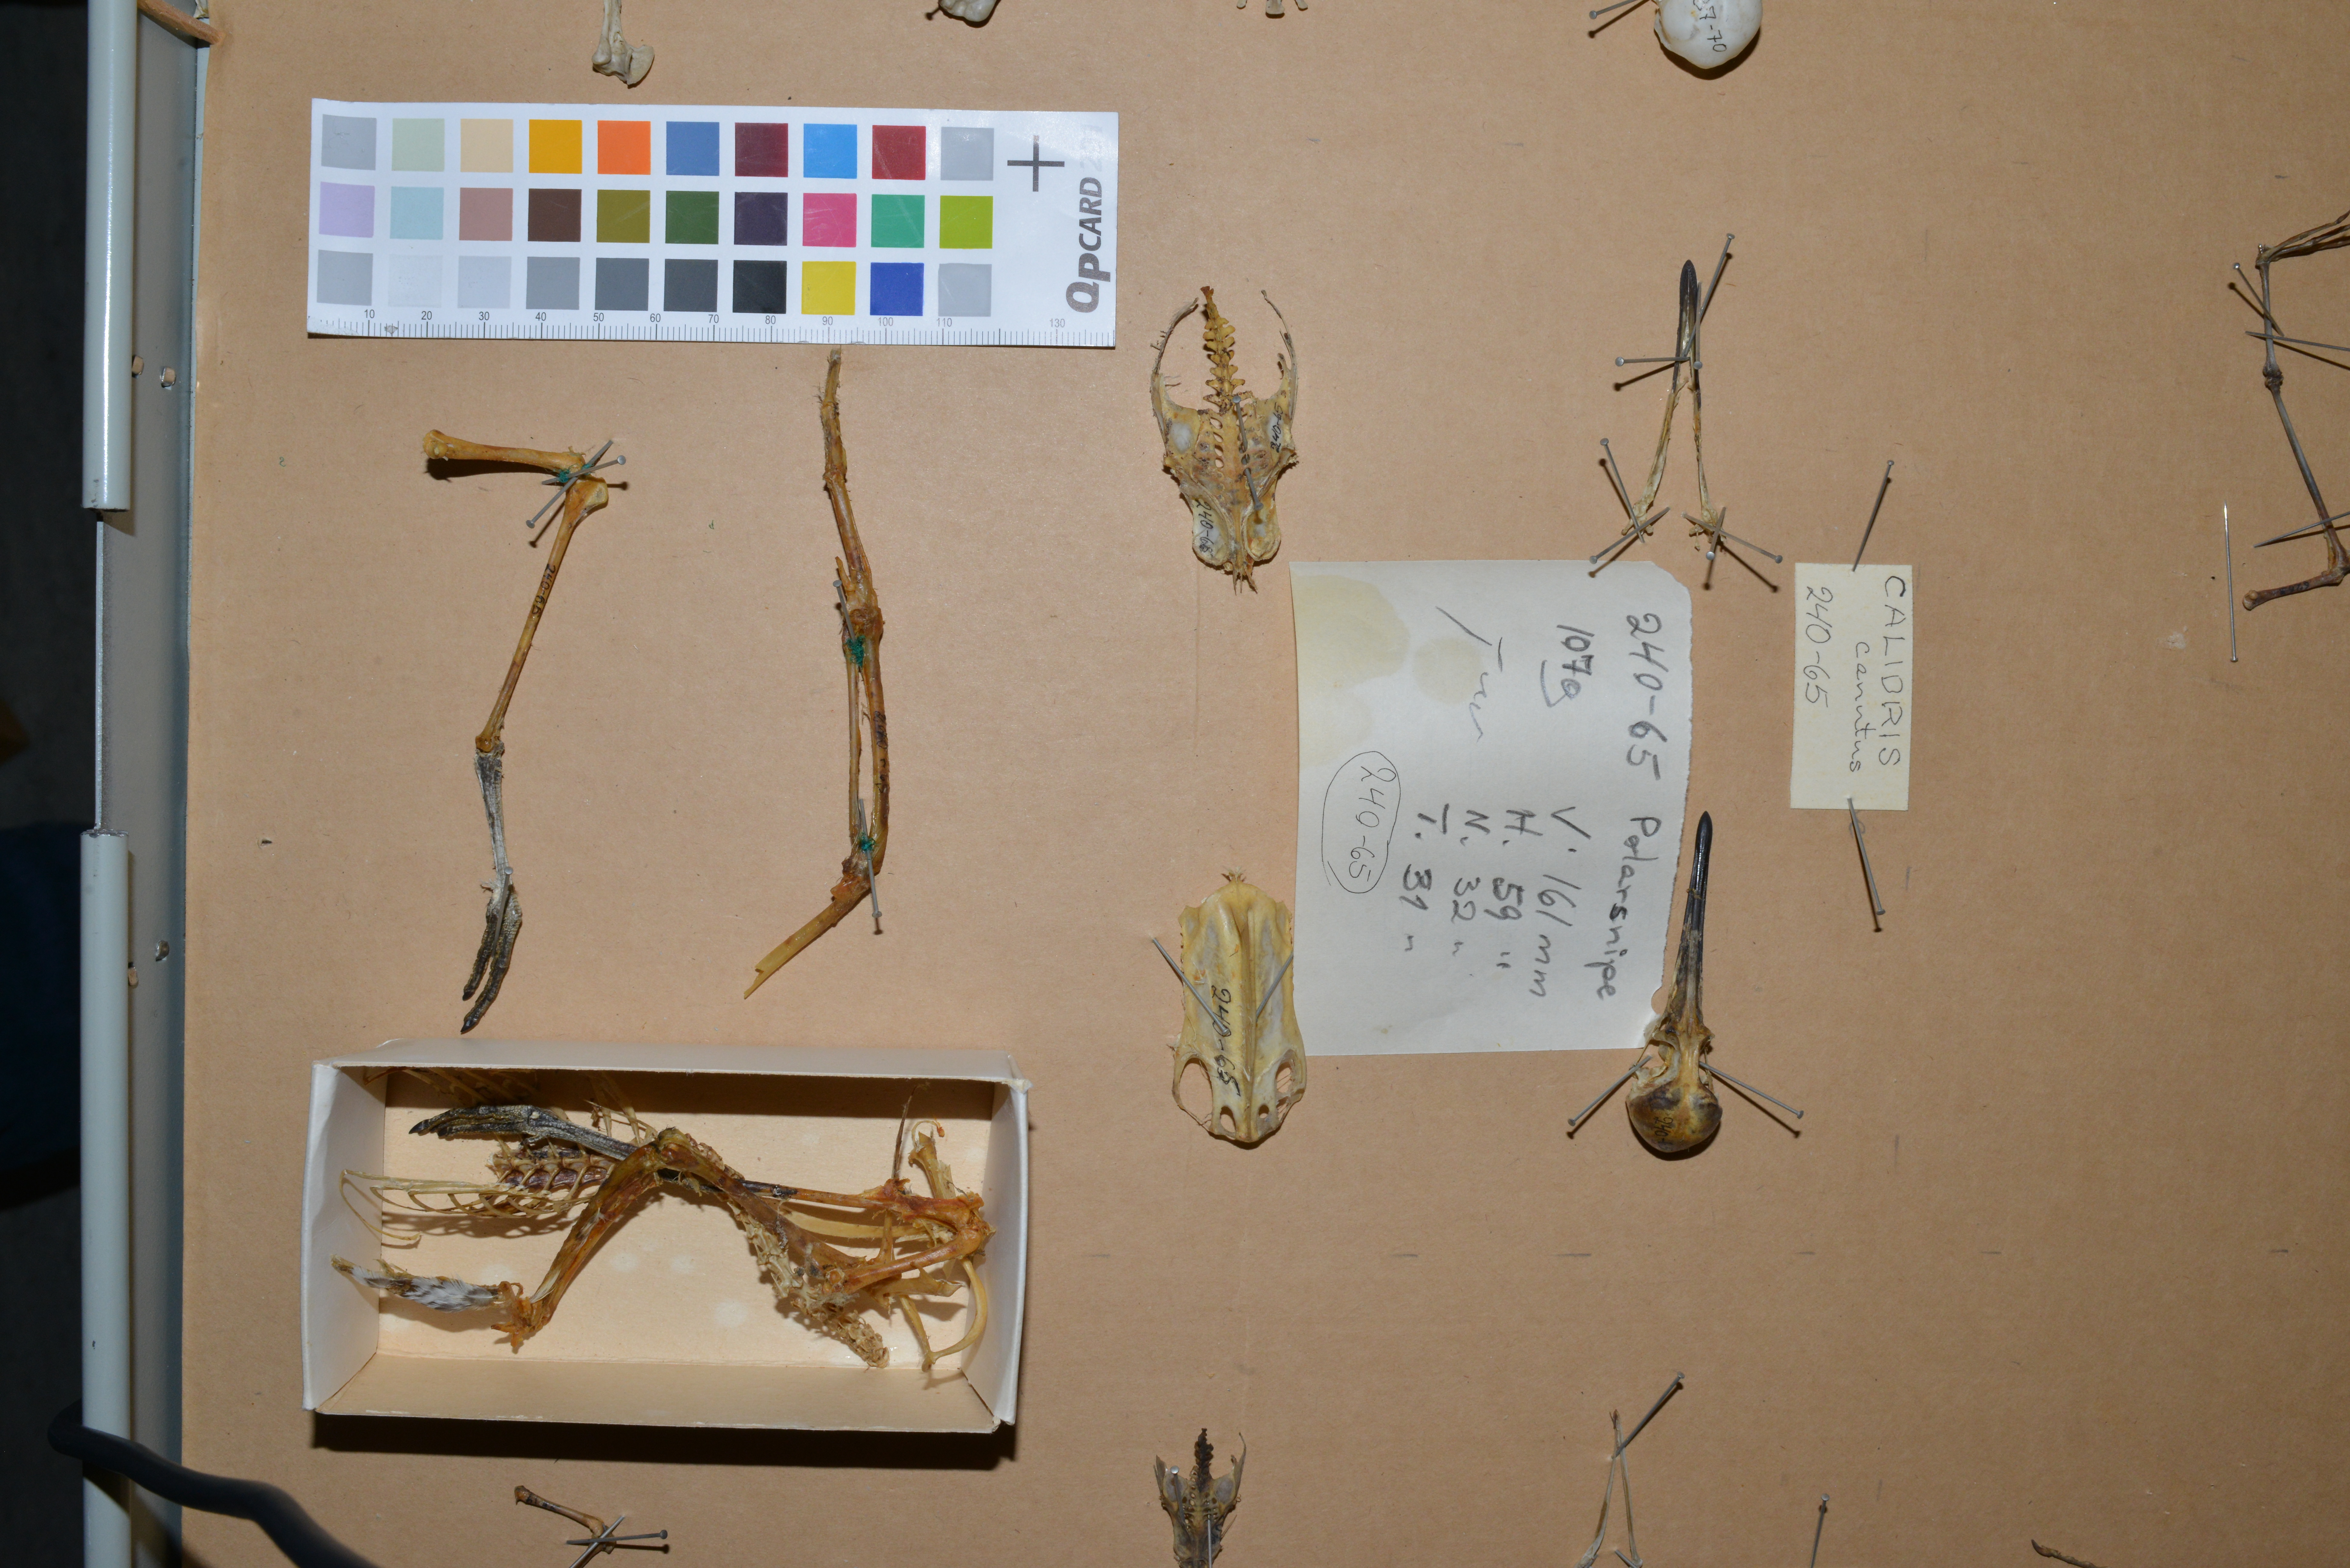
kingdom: Animalia
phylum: Chordata
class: Aves
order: Charadriiformes
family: Scolopacidae
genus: Calidris
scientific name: Calidris canutus
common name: Red knot
